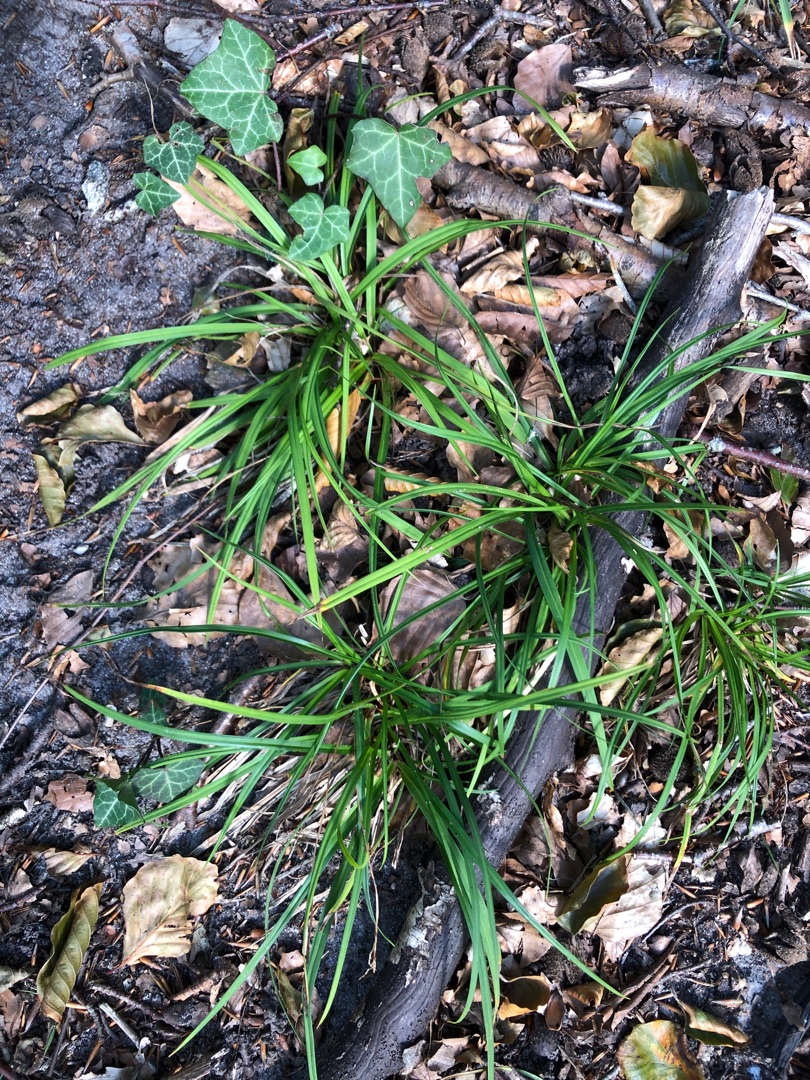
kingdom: Plantae
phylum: Tracheophyta
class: Liliopsida
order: Poales
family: Cyperaceae
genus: Carex
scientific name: Carex digitata
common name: Finger-star
